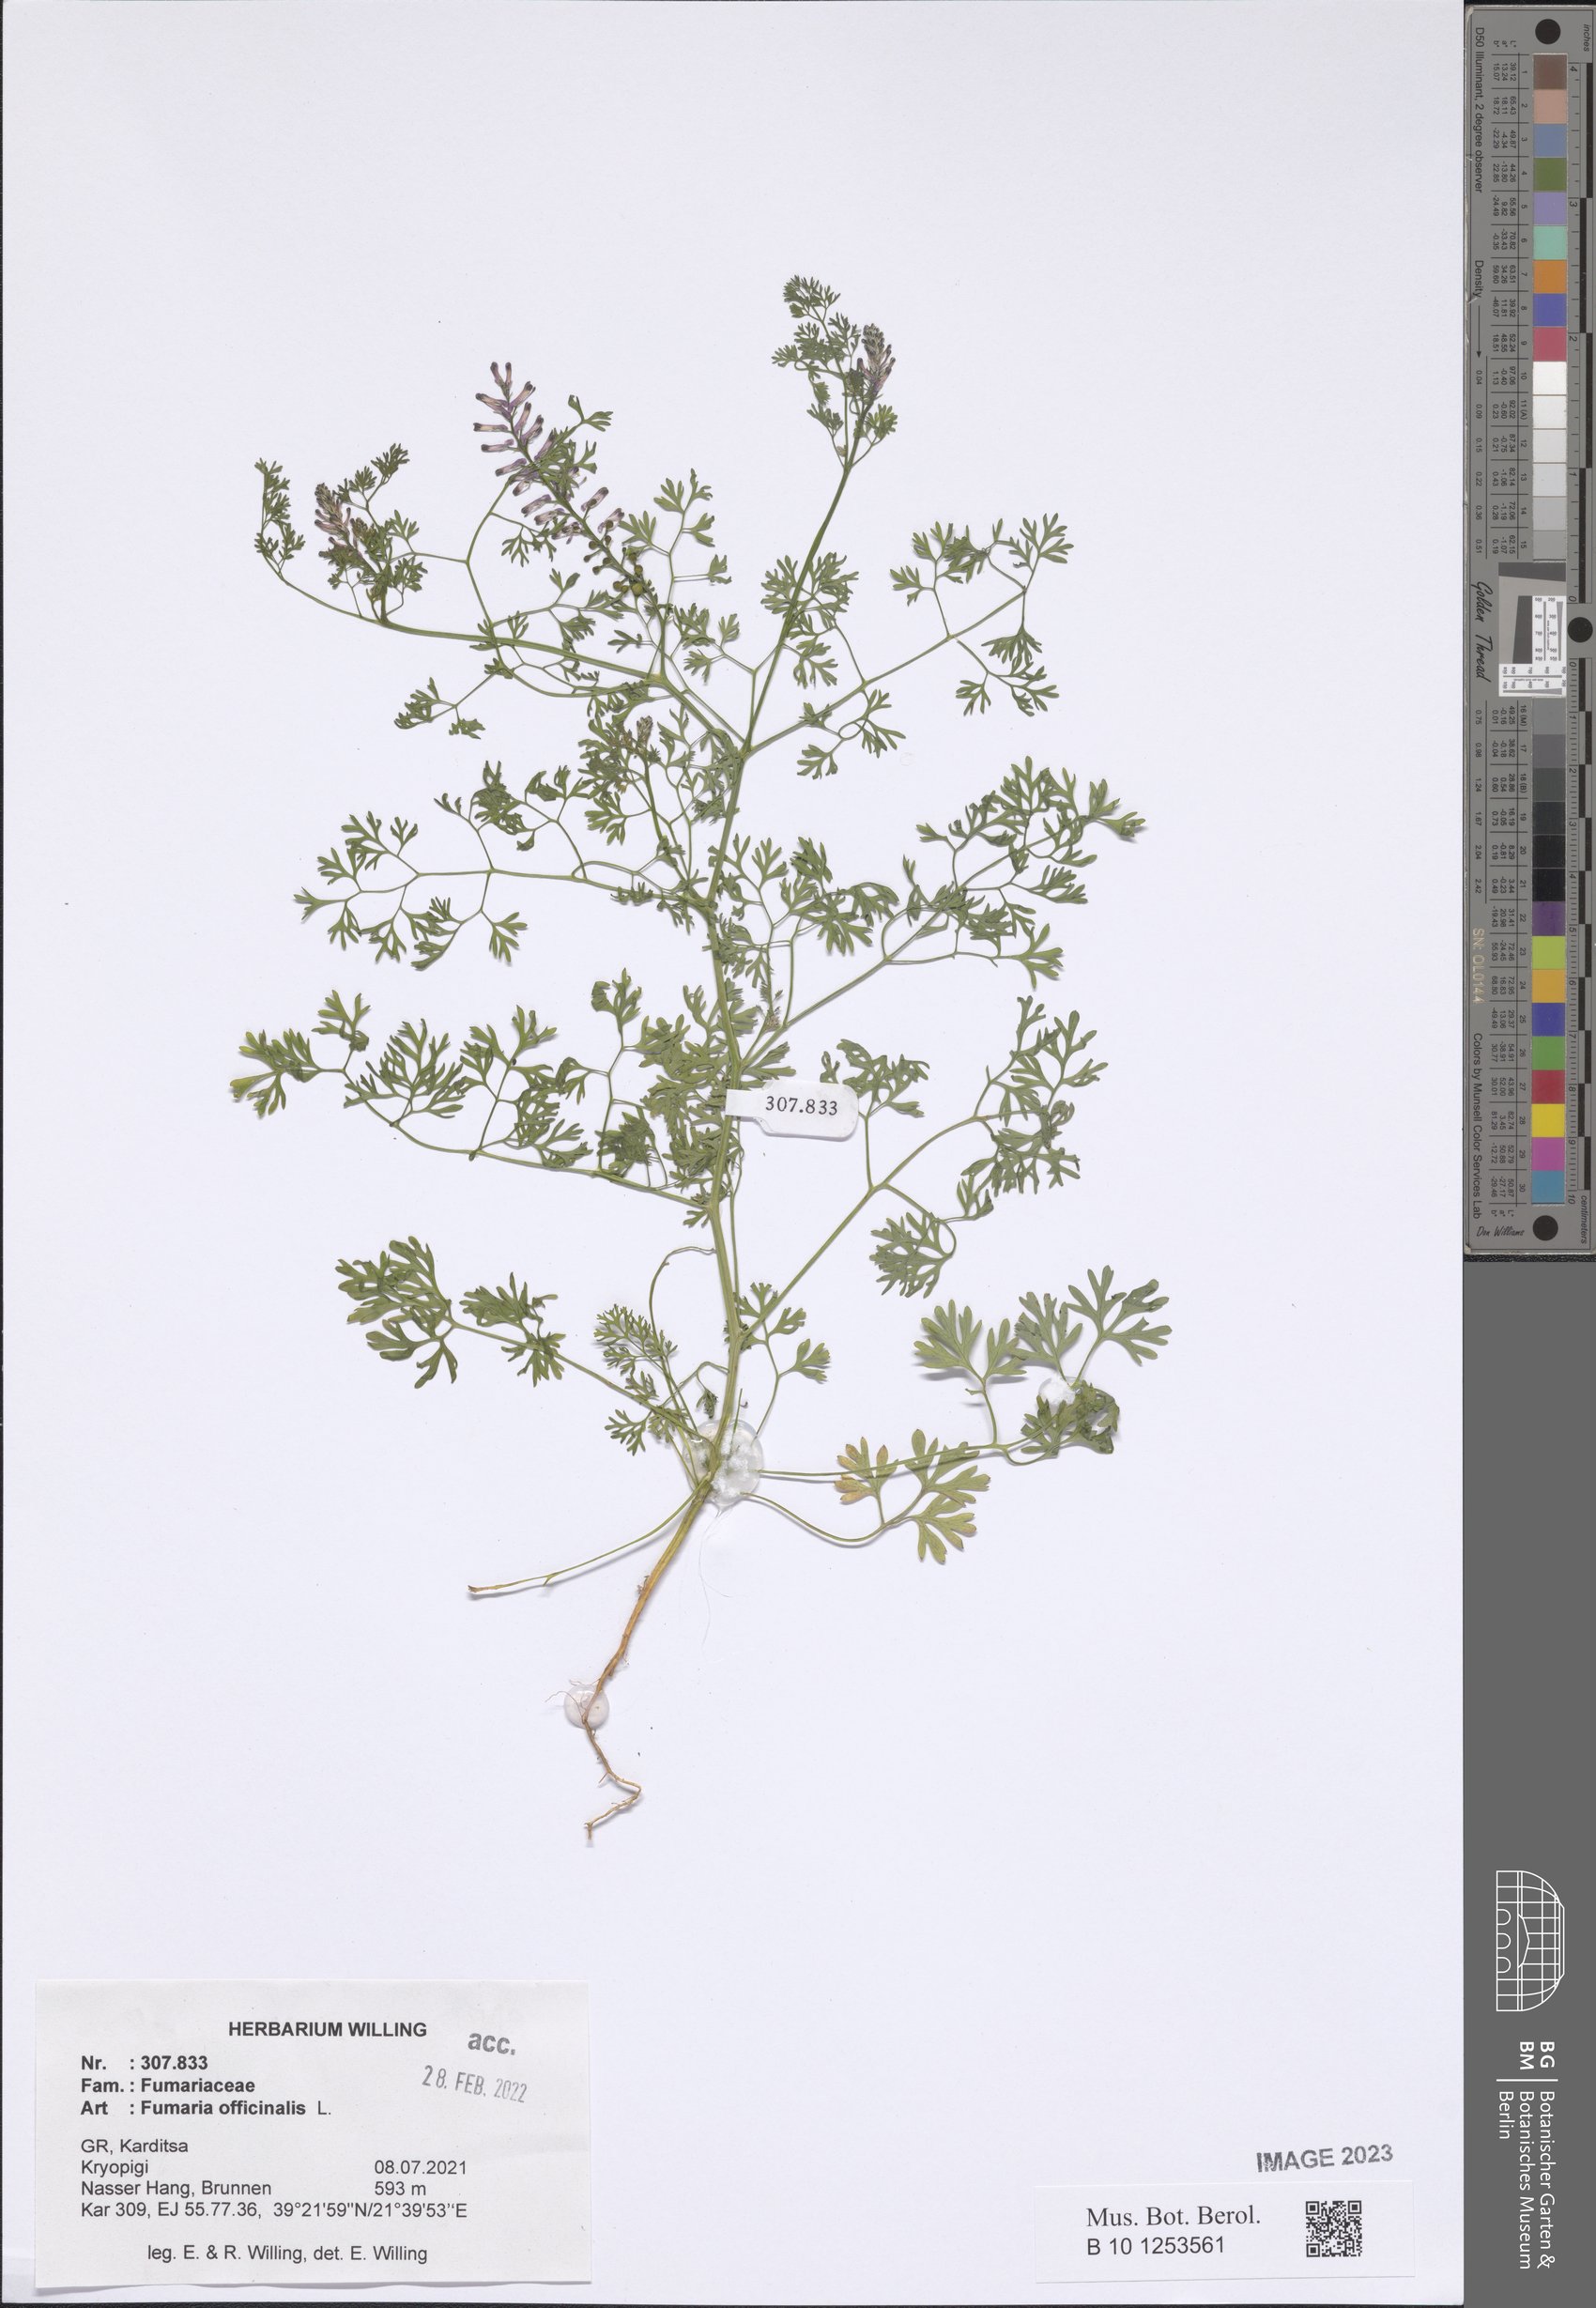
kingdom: Plantae
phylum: Tracheophyta
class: Magnoliopsida
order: Ranunculales
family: Papaveraceae
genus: Fumaria
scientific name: Fumaria officinalis
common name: Common fumitory
